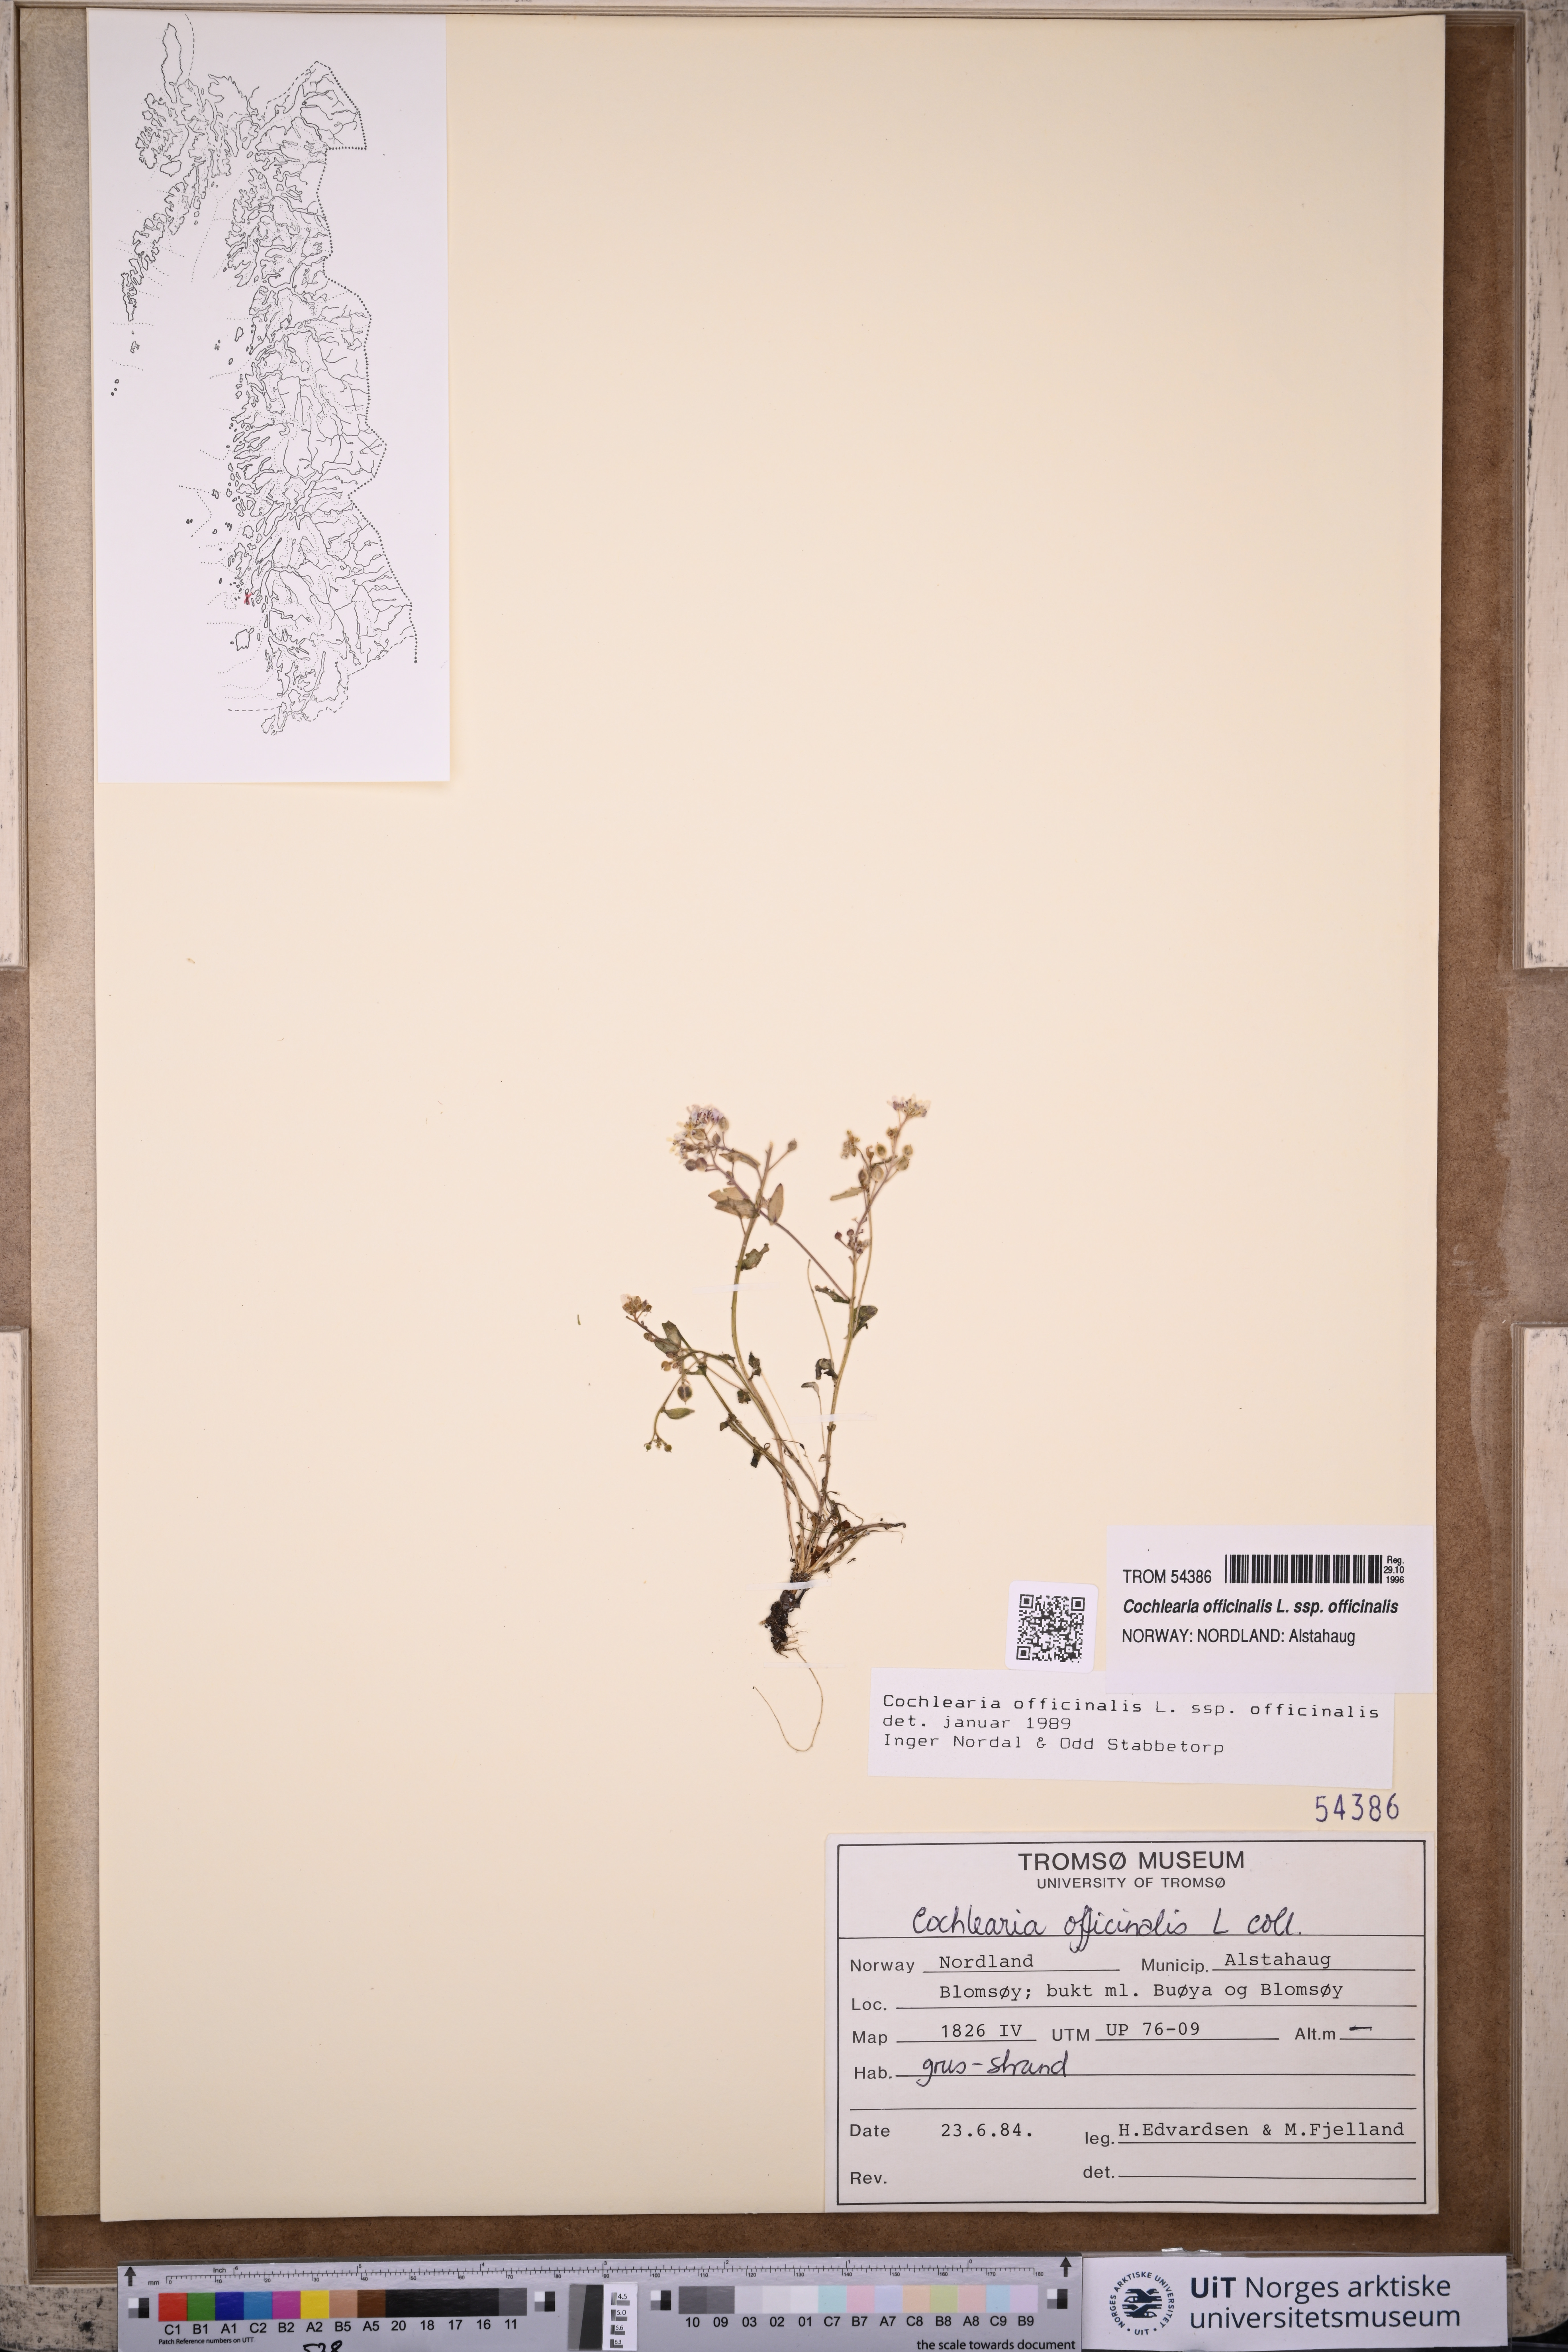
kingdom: Plantae
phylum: Tracheophyta
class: Magnoliopsida
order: Brassicales
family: Brassicaceae
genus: Cochlearia
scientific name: Cochlearia officinalis
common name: Scurvy-grass
